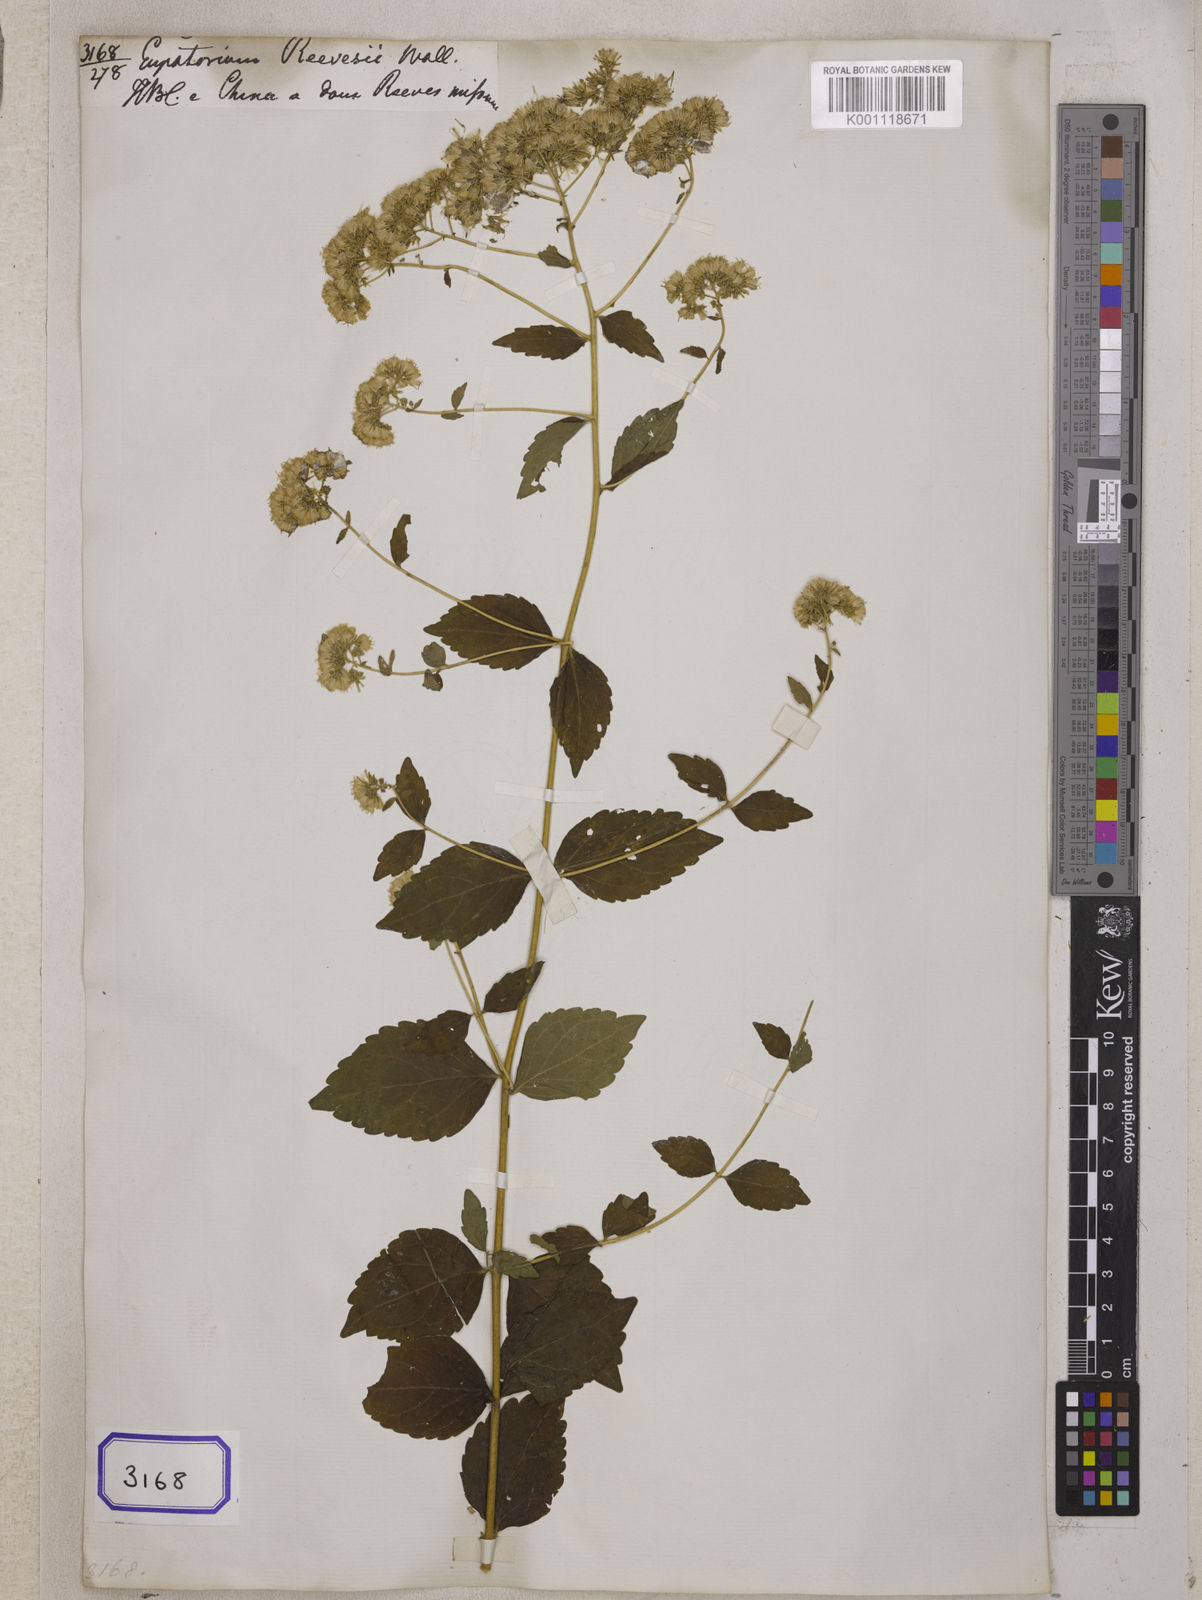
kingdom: Plantae
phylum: Tracheophyta
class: Magnoliopsida
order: Asterales
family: Asteraceae
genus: Eupatorium
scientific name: Eupatorium reevesii
